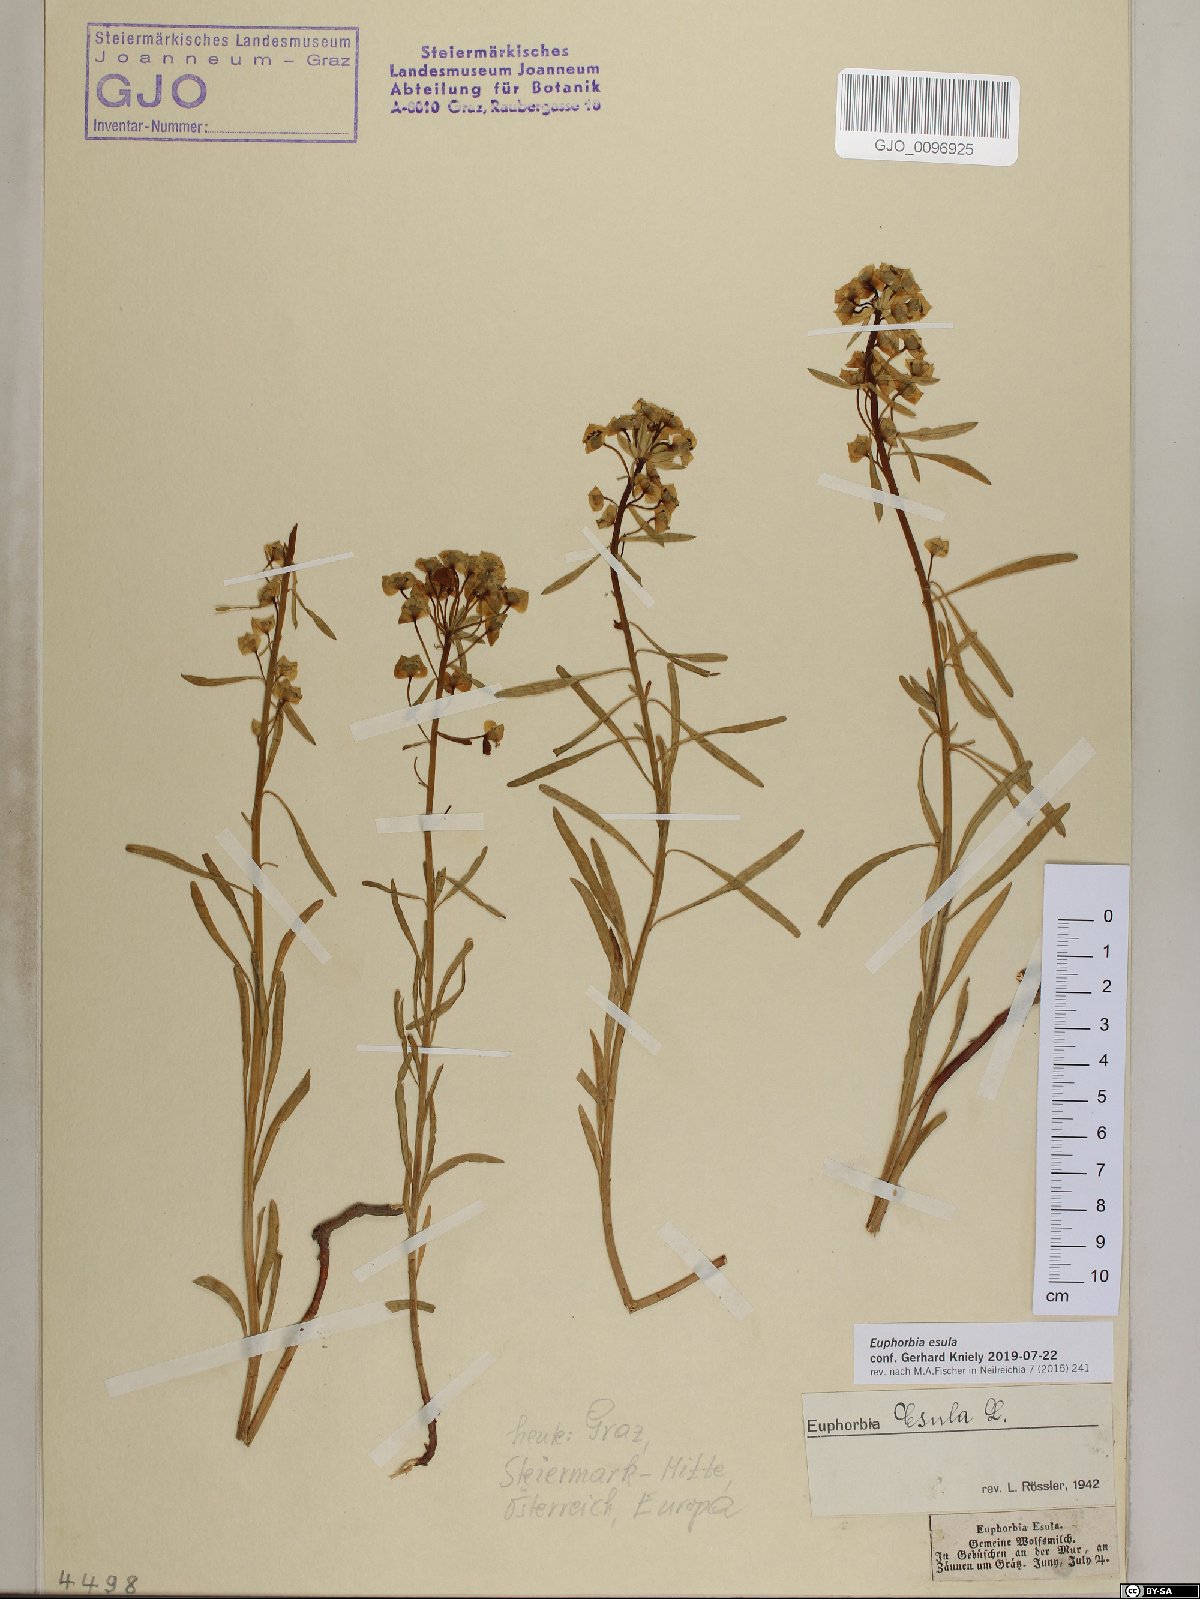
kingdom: Plantae
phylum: Tracheophyta
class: Magnoliopsida
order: Malpighiales
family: Euphorbiaceae
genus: Euphorbia
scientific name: Euphorbia esula
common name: Leafy spurge
